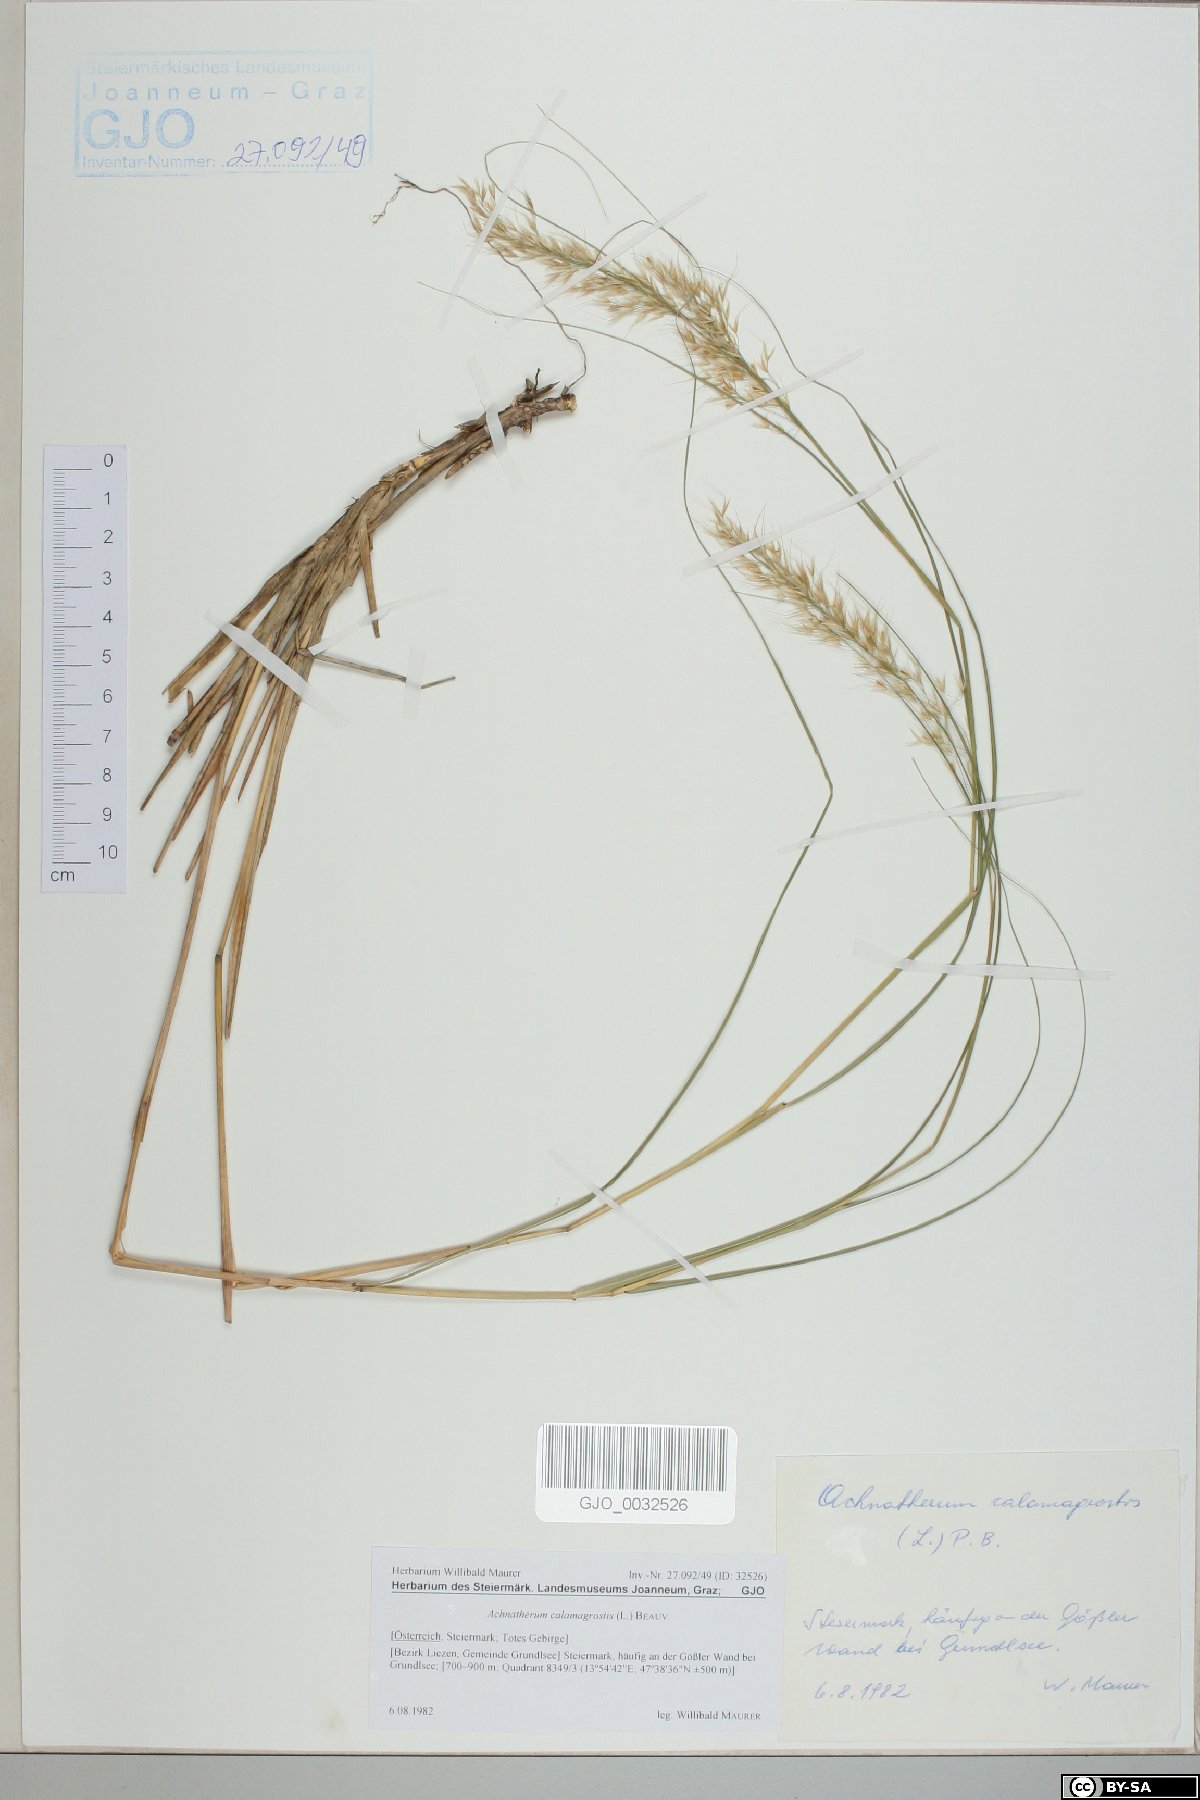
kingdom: Plantae
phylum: Tracheophyta
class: Liliopsida
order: Poales
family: Poaceae
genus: Achnatherum
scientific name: Achnatherum calamagrostis
